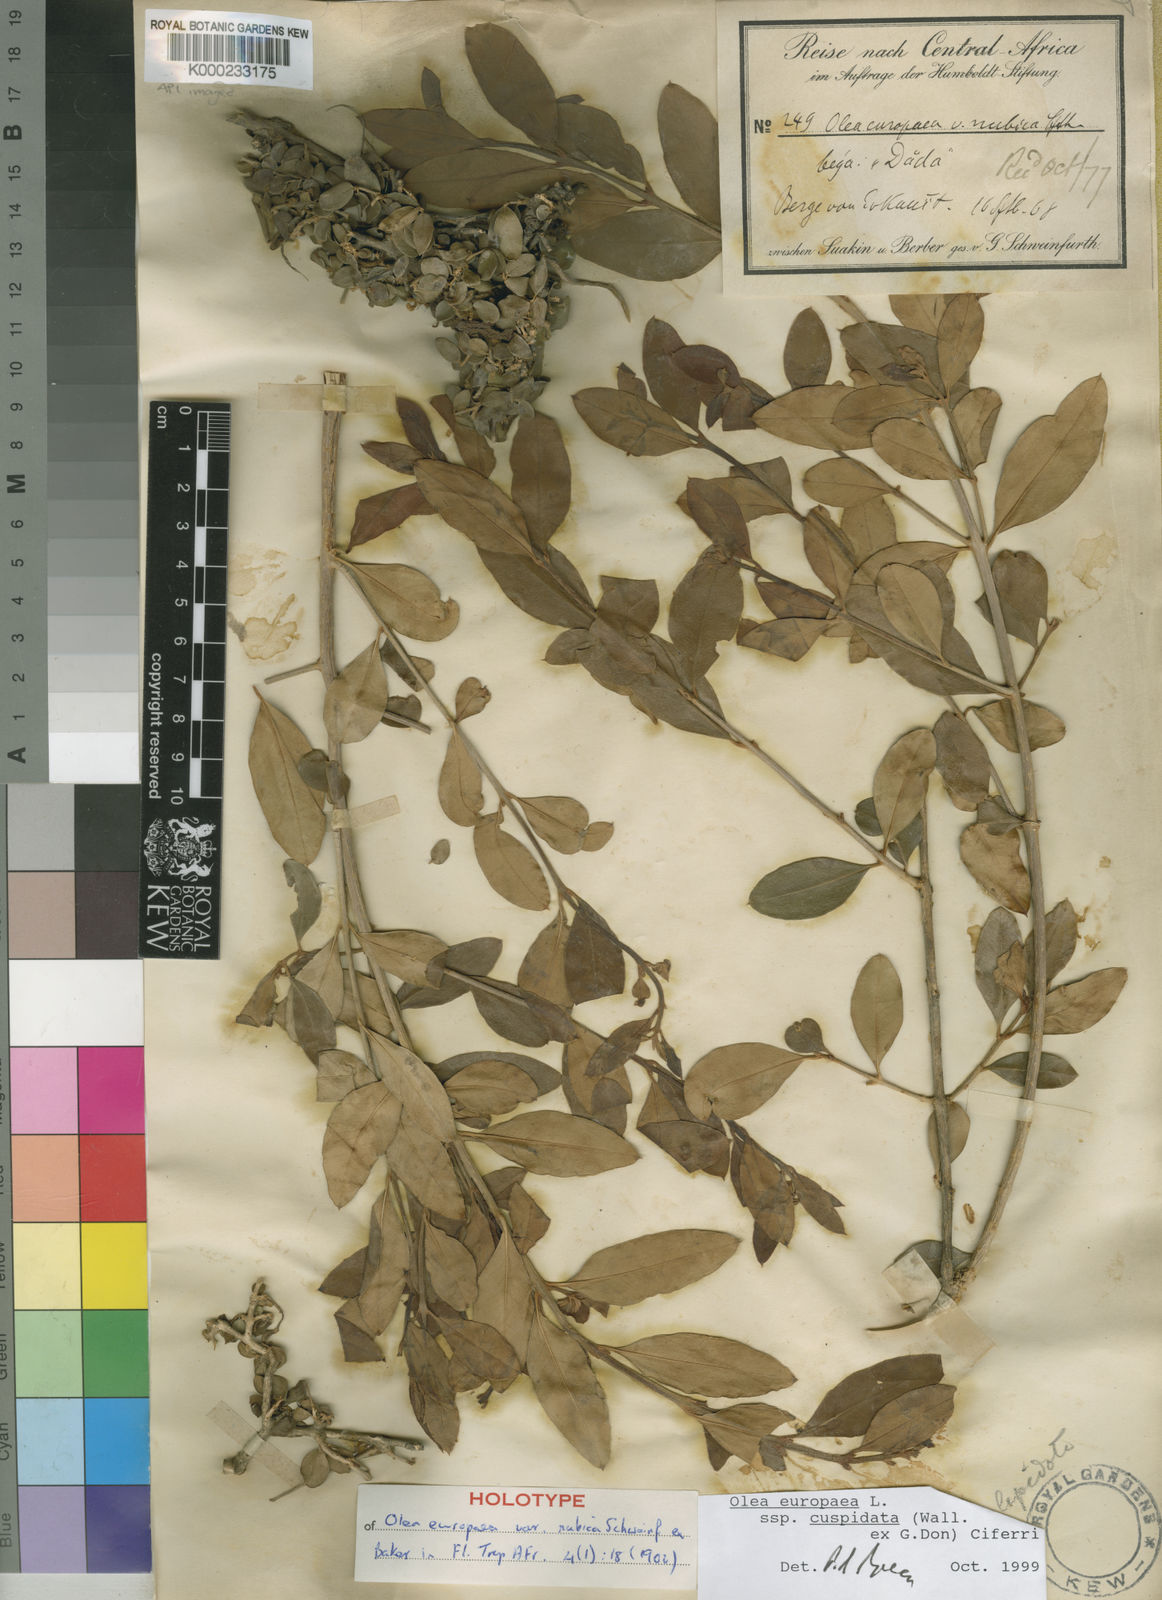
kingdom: Plantae
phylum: Tracheophyta
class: Magnoliopsida
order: Lamiales
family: Oleaceae
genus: Olea
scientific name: Olea europaea
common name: Olive
